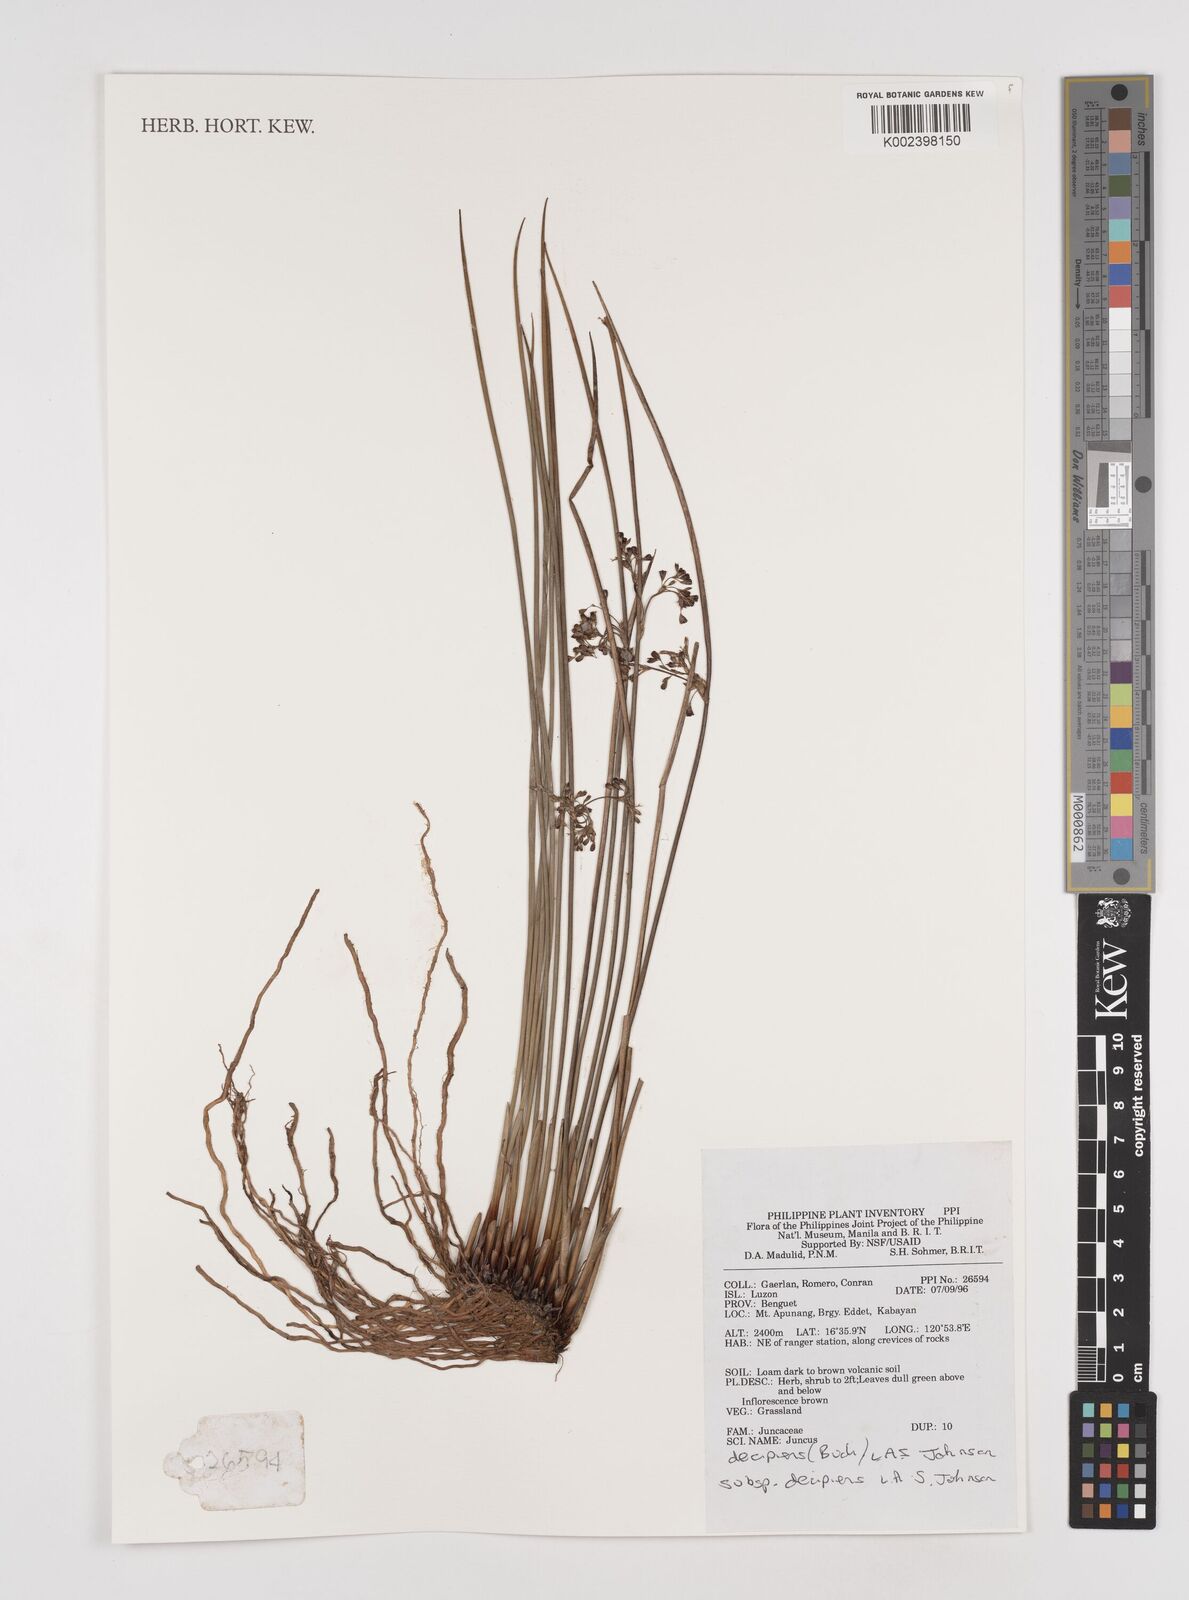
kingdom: Plantae
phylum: Tracheophyta
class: Liliopsida
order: Poales
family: Juncaceae
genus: Juncus
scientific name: Juncus decipiens
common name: Lamp rush
